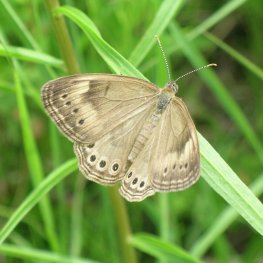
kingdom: Animalia
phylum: Arthropoda
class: Insecta
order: Lepidoptera
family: Nymphalidae
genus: Lethe
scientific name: Lethe eurydice
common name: Eyed Brown
